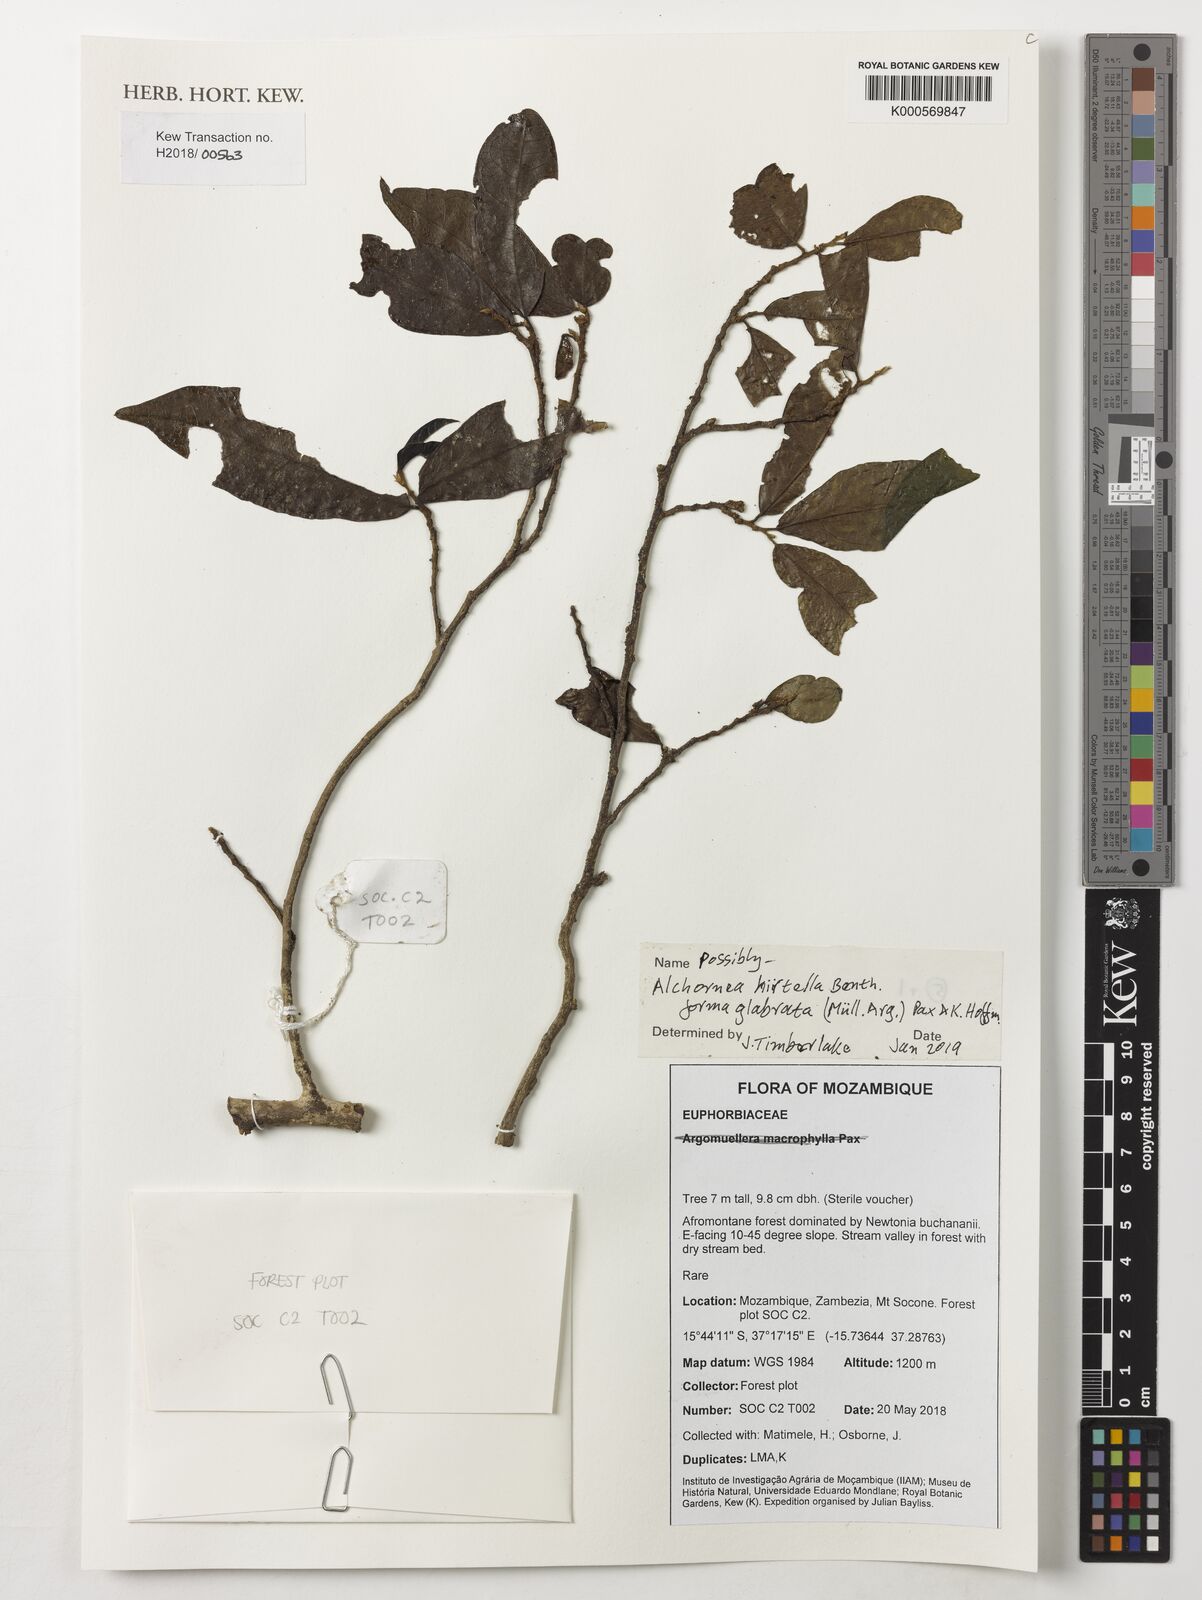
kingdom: Plantae
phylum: Tracheophyta
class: Magnoliopsida
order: Malpighiales
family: Euphorbiaceae
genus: Alchornea
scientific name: Alchornea hirtella
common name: Forest bead-string
